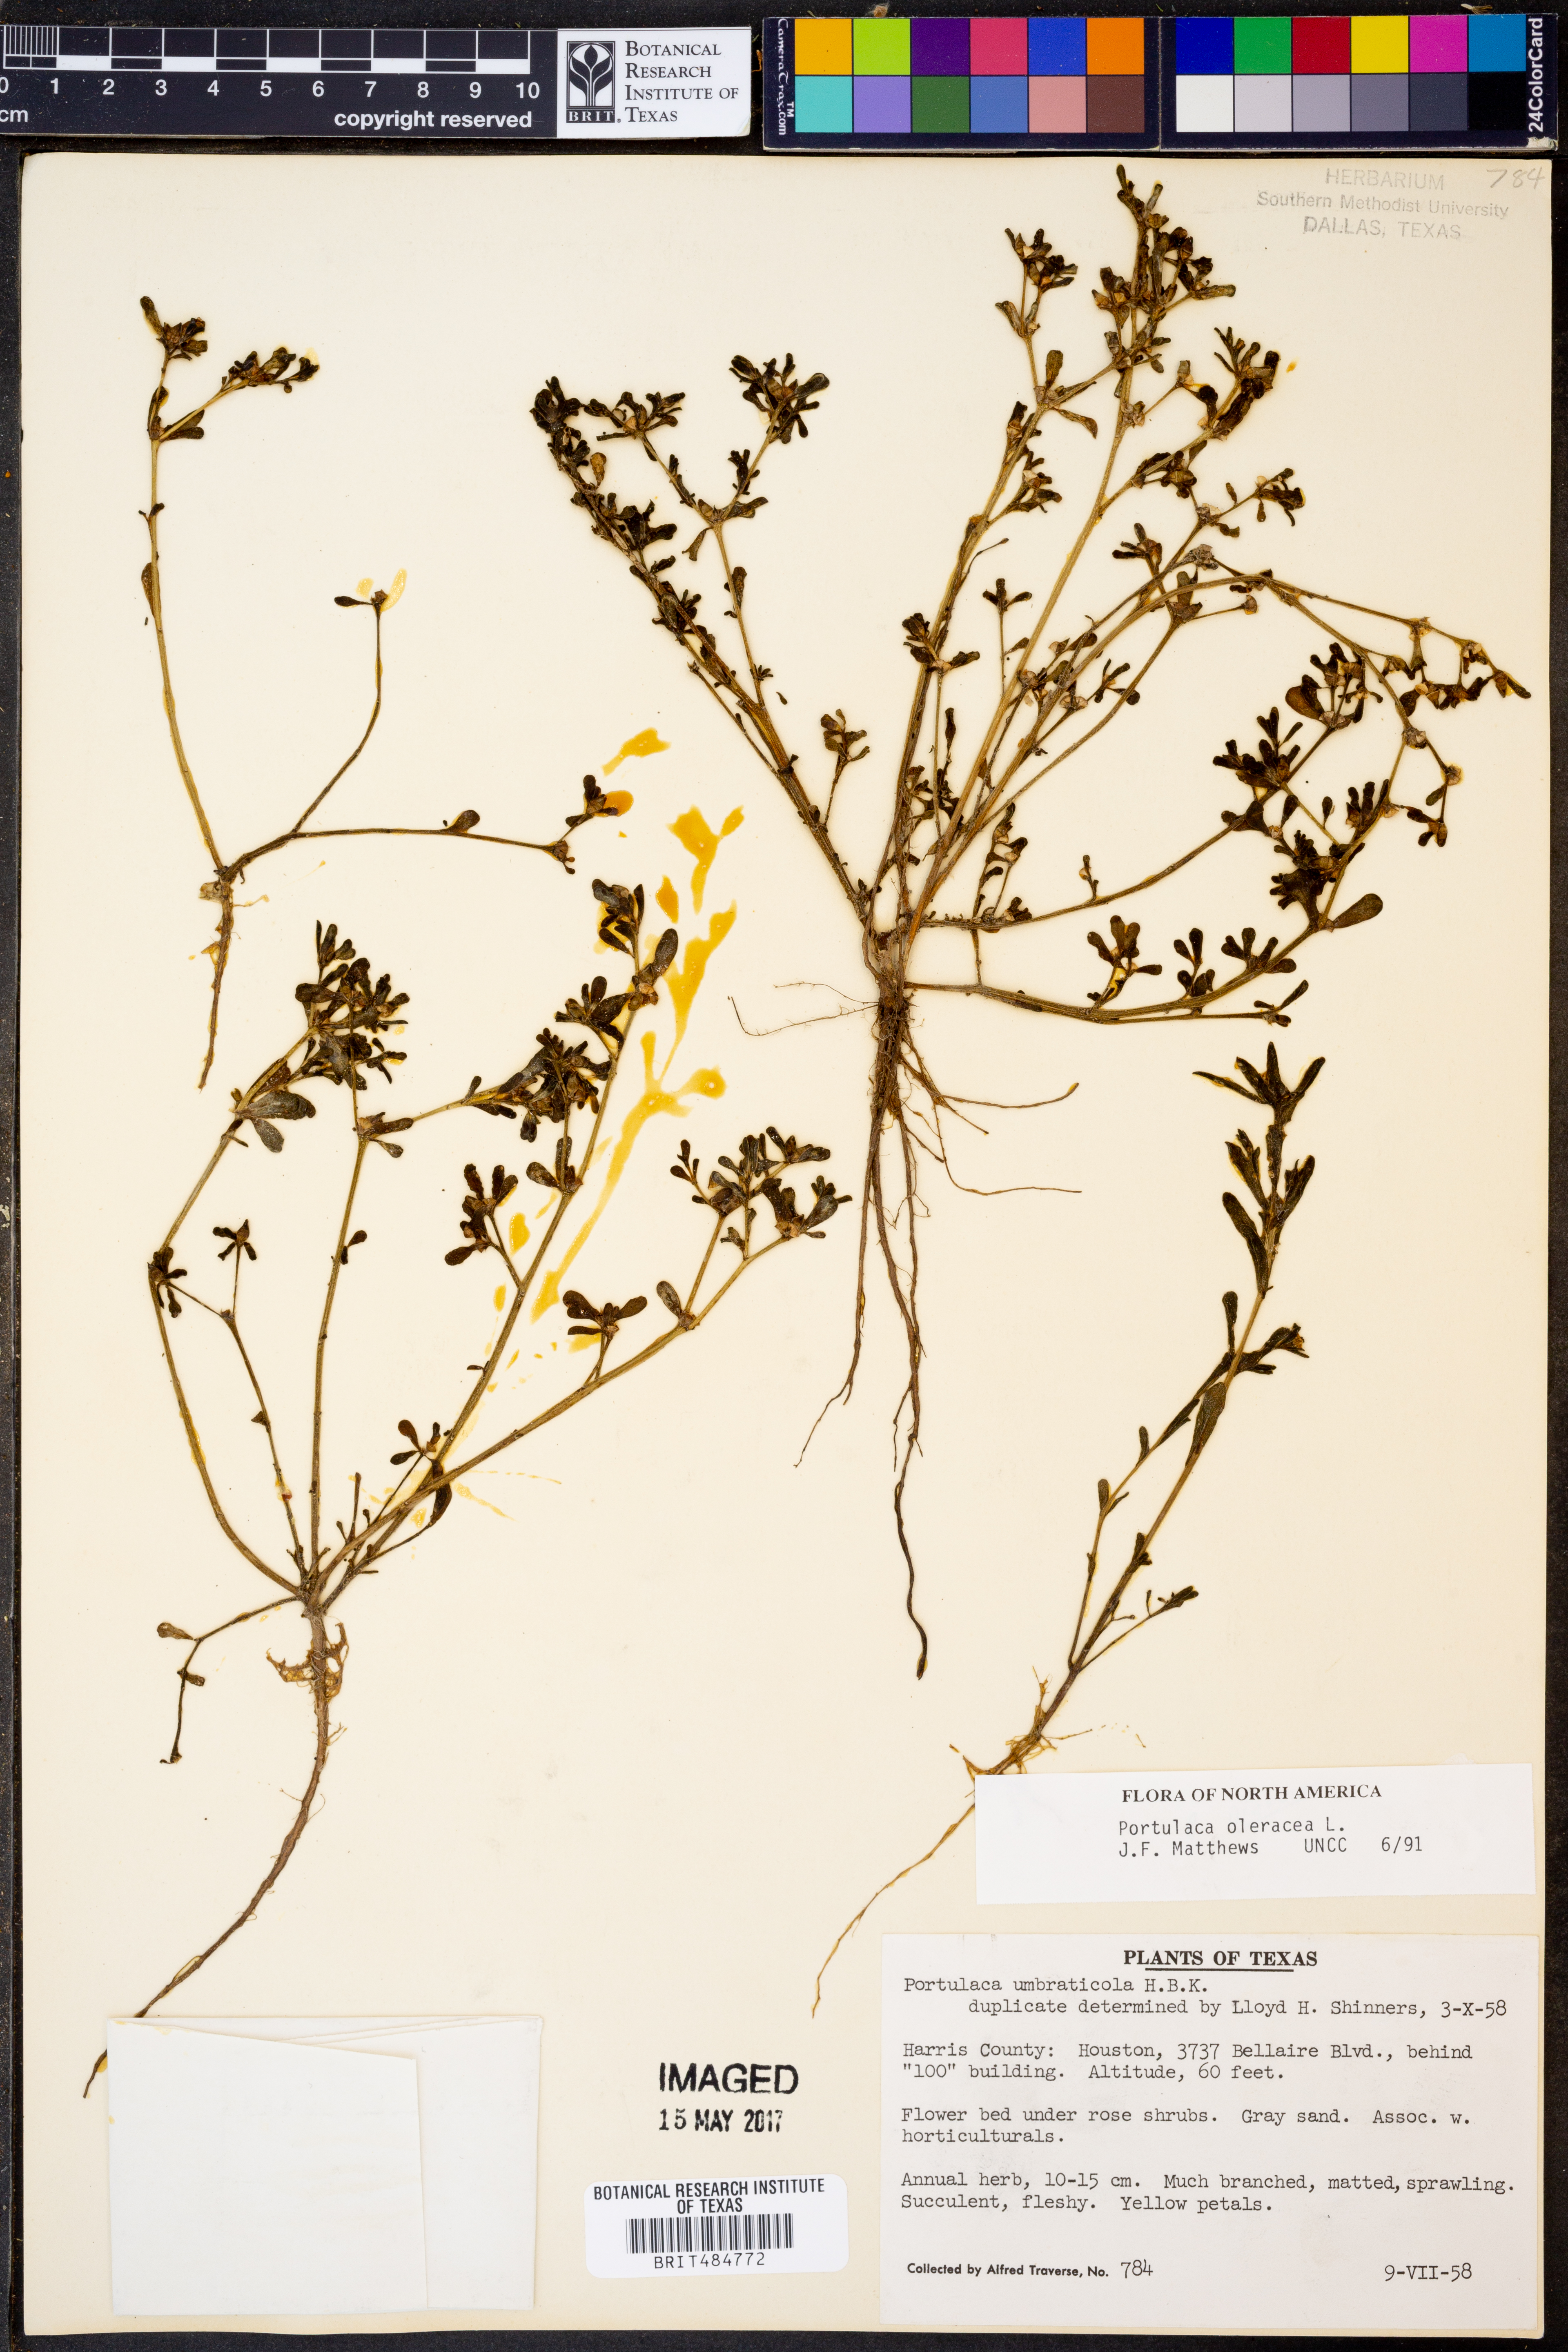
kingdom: Plantae
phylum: Tracheophyta
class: Magnoliopsida
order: Caryophyllales
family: Portulacaceae
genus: Portulaca
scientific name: Portulaca oleracea
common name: Common purslane
